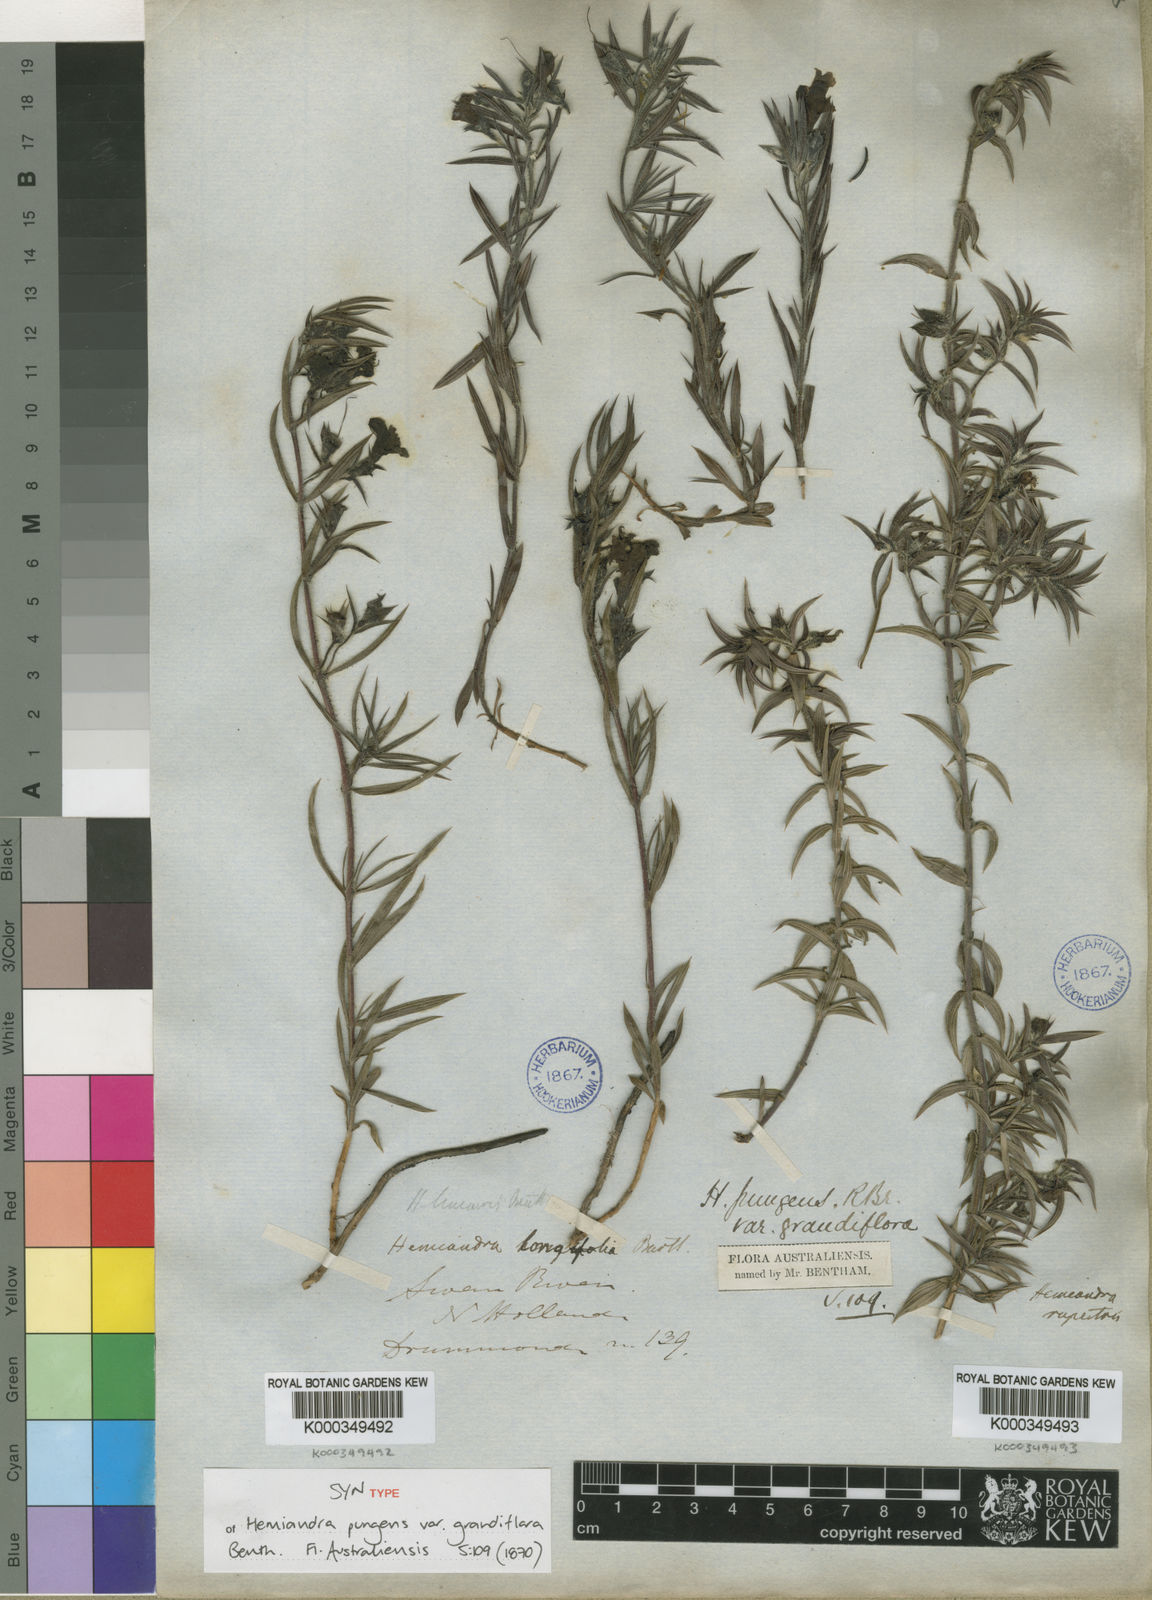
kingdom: Plantae
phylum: Tracheophyta
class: Magnoliopsida
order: Lamiales
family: Lamiaceae
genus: Hemiandra
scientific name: Hemiandra pungens
